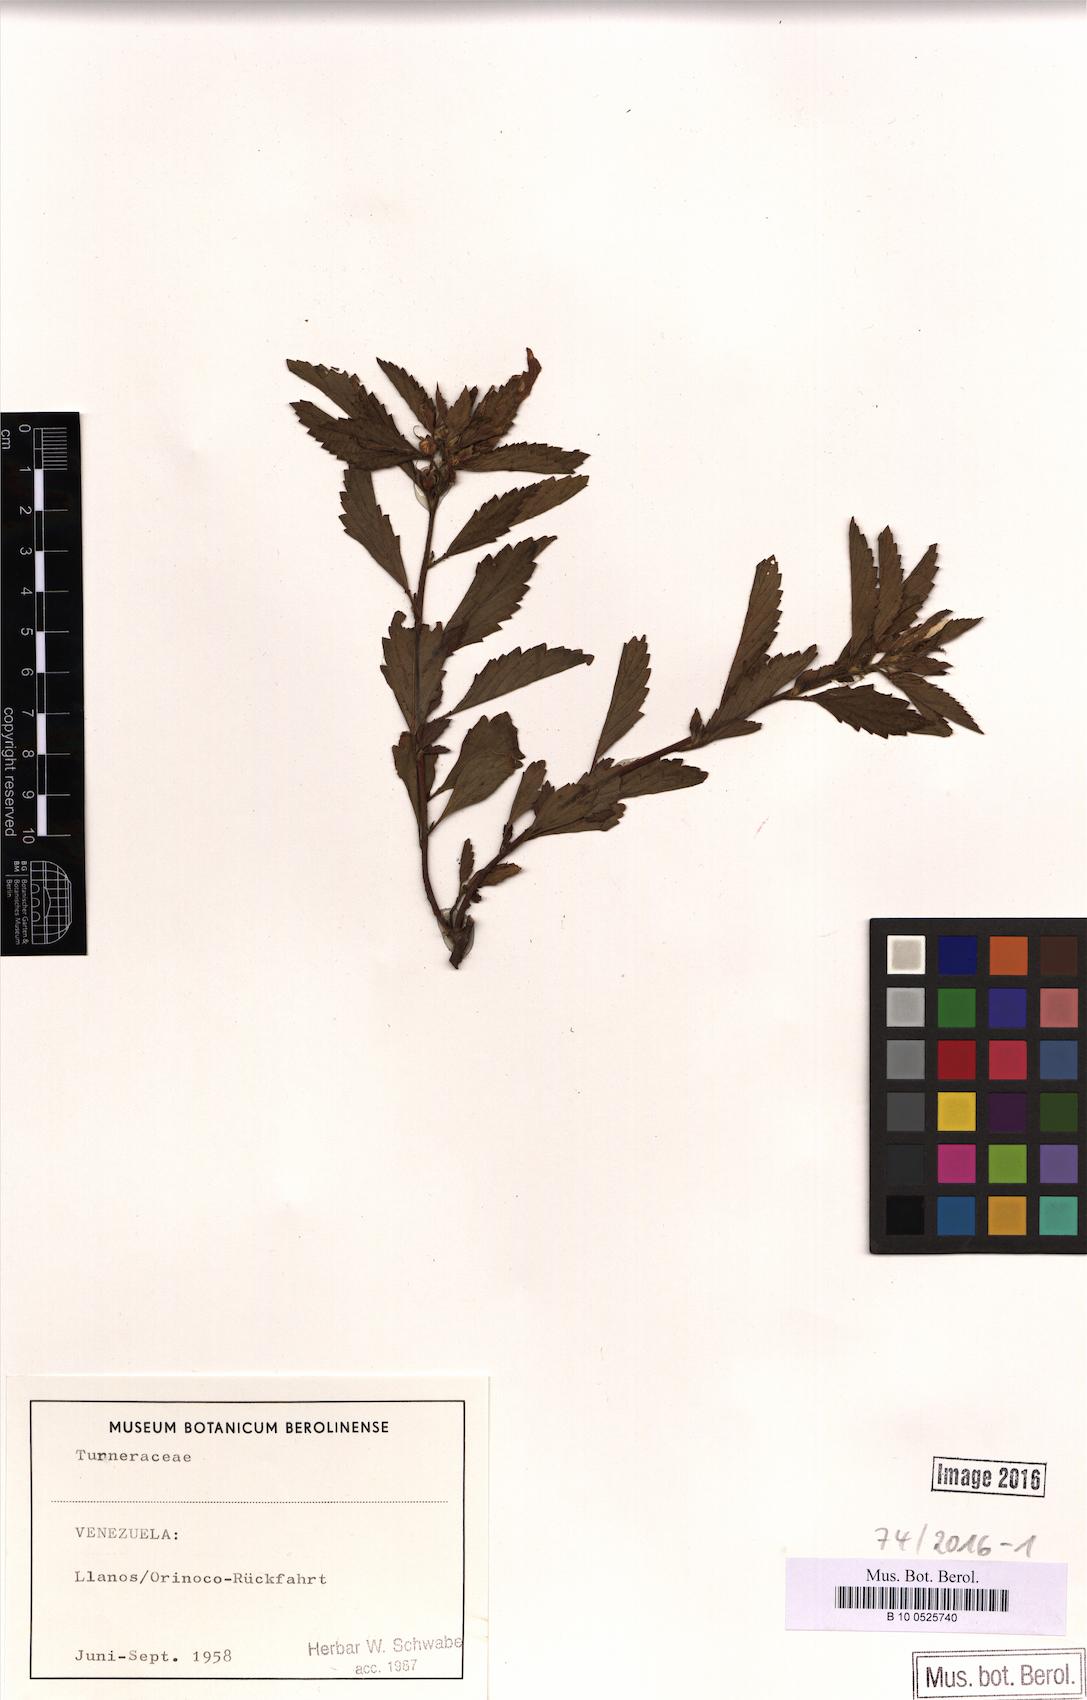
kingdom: Plantae
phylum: Tracheophyta
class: Magnoliopsida
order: Malpighiales
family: Turneraceae
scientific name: Turneraceae
